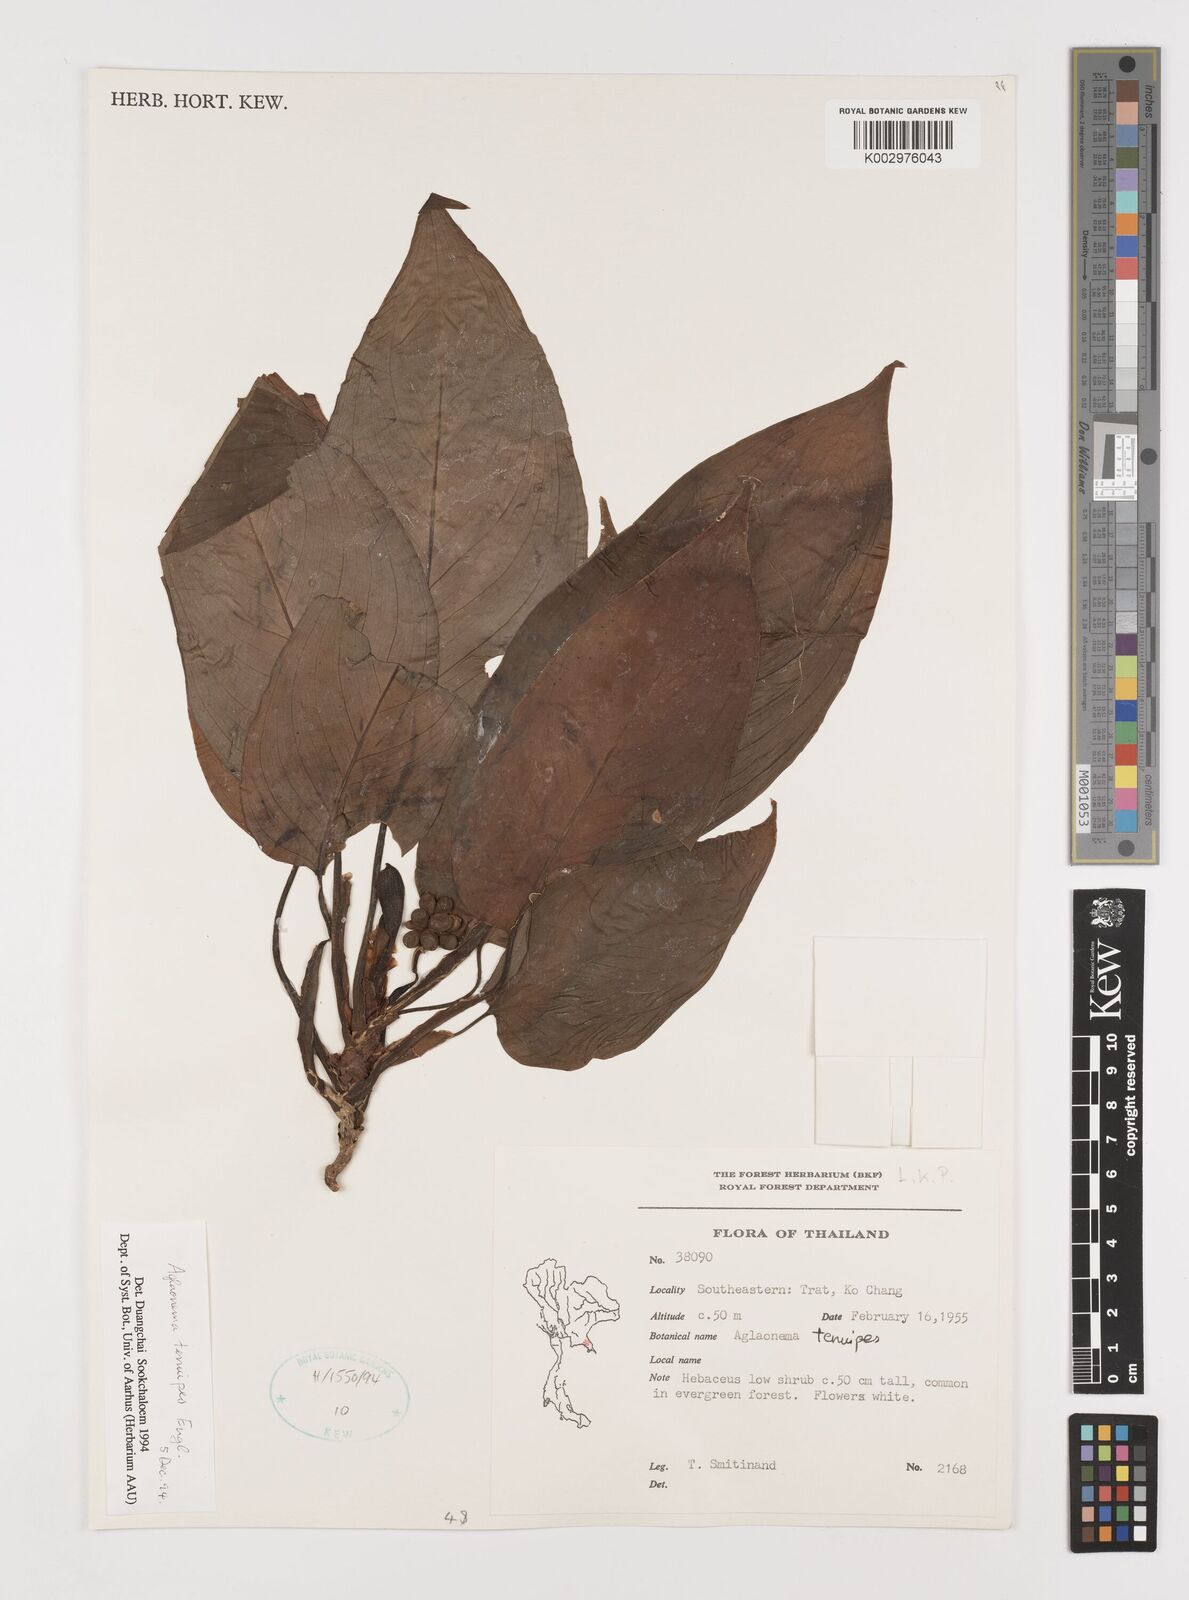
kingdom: Plantae
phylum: Tracheophyta
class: Liliopsida
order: Alismatales
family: Araceae
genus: Aglaonema
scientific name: Aglaonema simplex
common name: Malayan-sword
